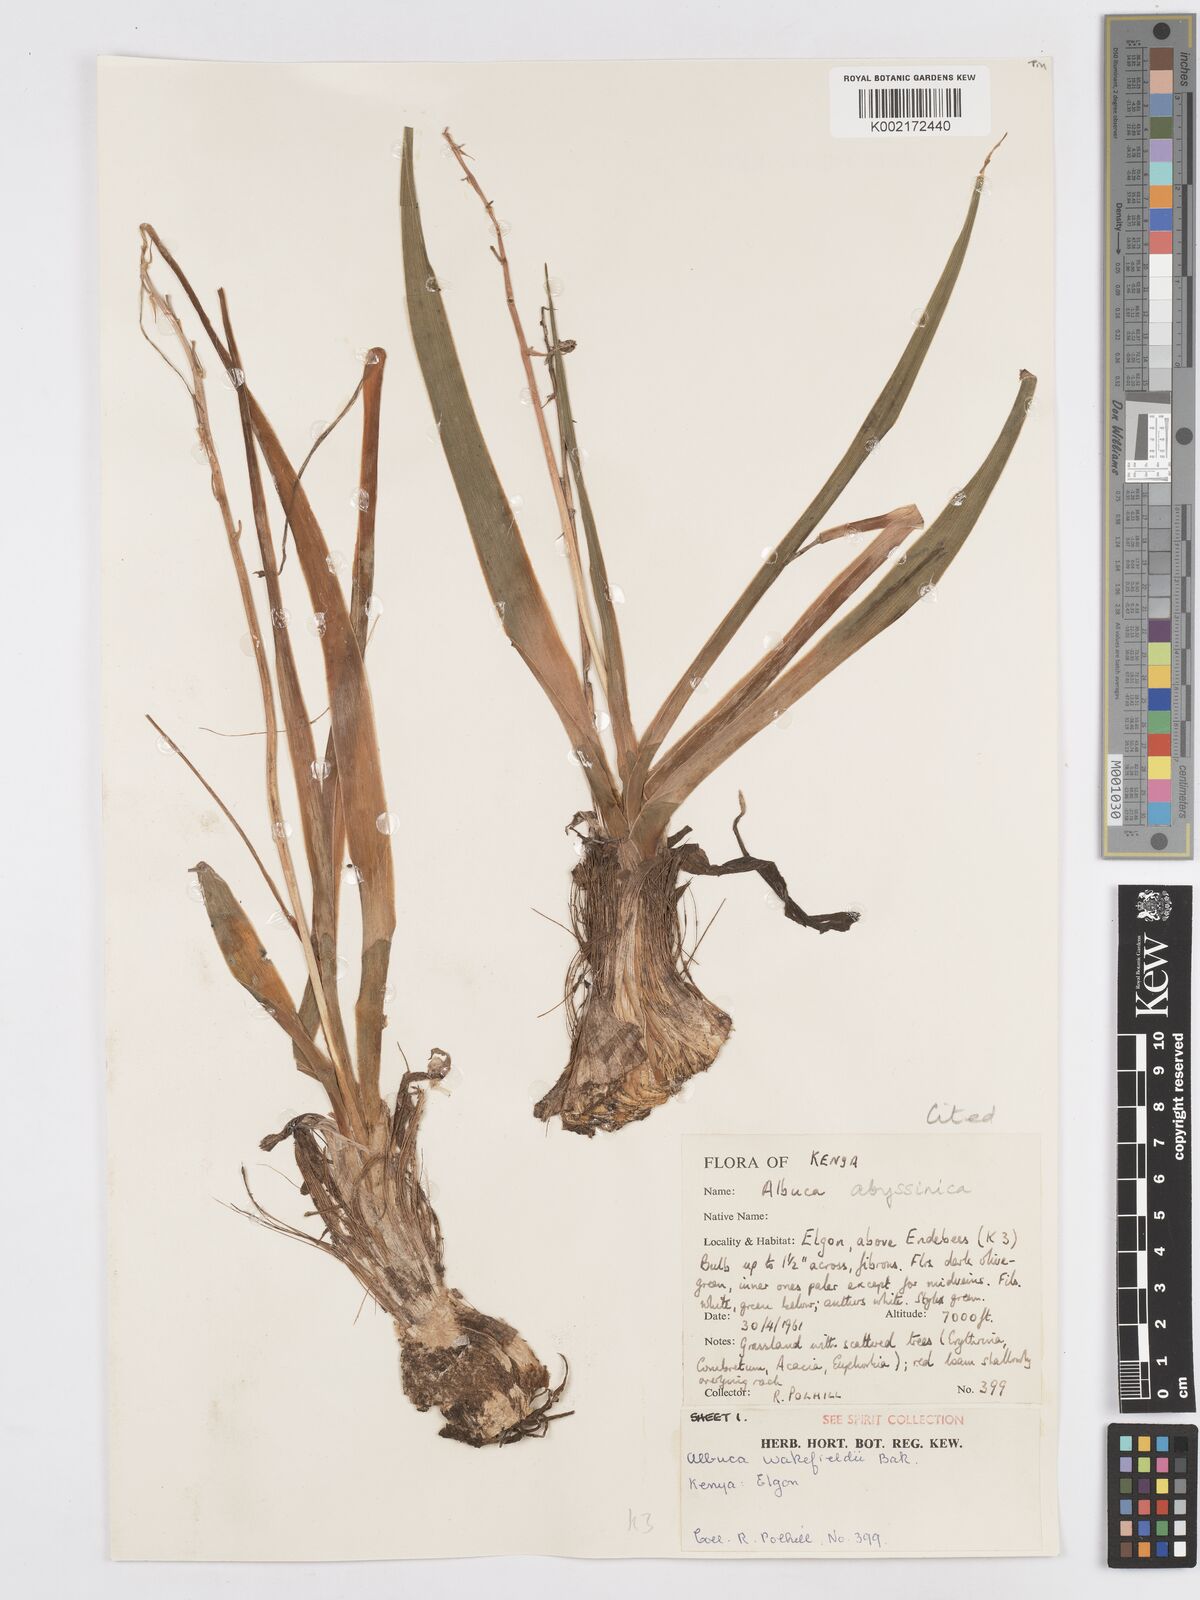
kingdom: Plantae
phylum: Tracheophyta
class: Liliopsida
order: Asparagales
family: Asparagaceae
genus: Albuca
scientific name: Albuca abyssinica
